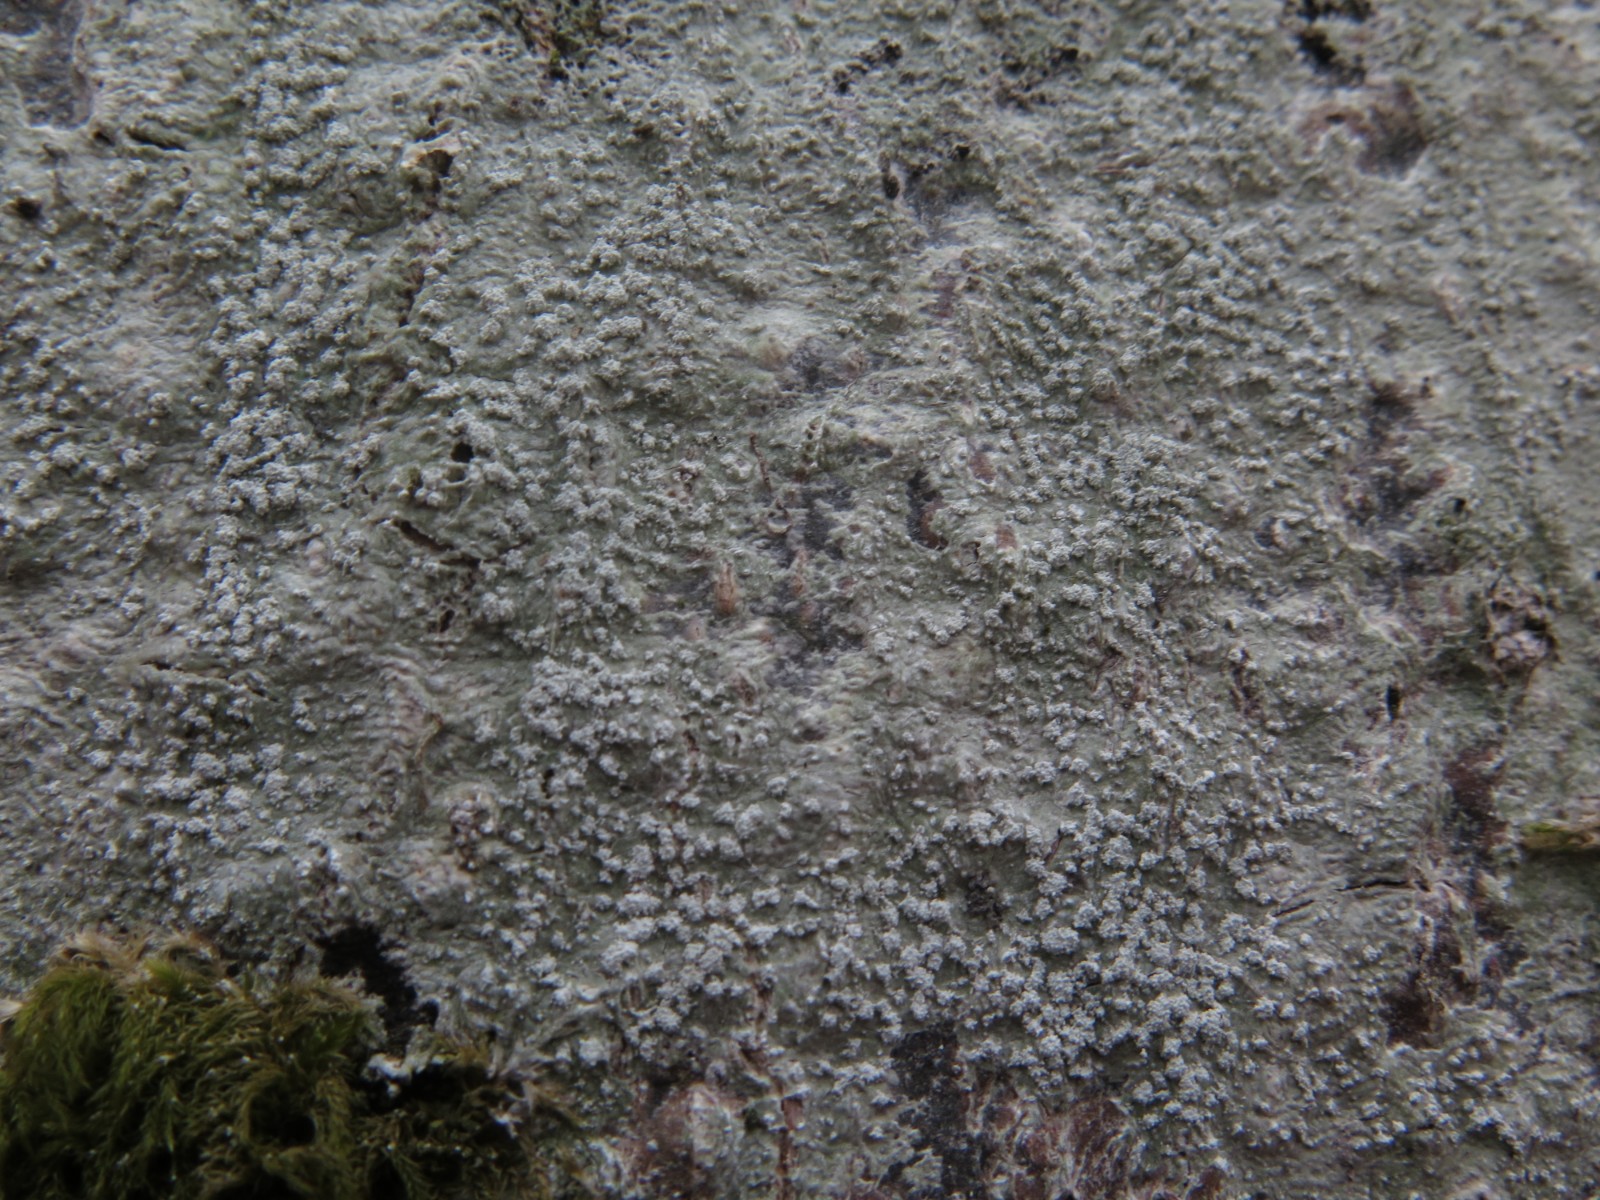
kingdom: Fungi
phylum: Ascomycota
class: Lecanoromycetes
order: Pertusariales
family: Pertusariaceae
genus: Lepra
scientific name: Lepra amara
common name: bitter prikvortelav
